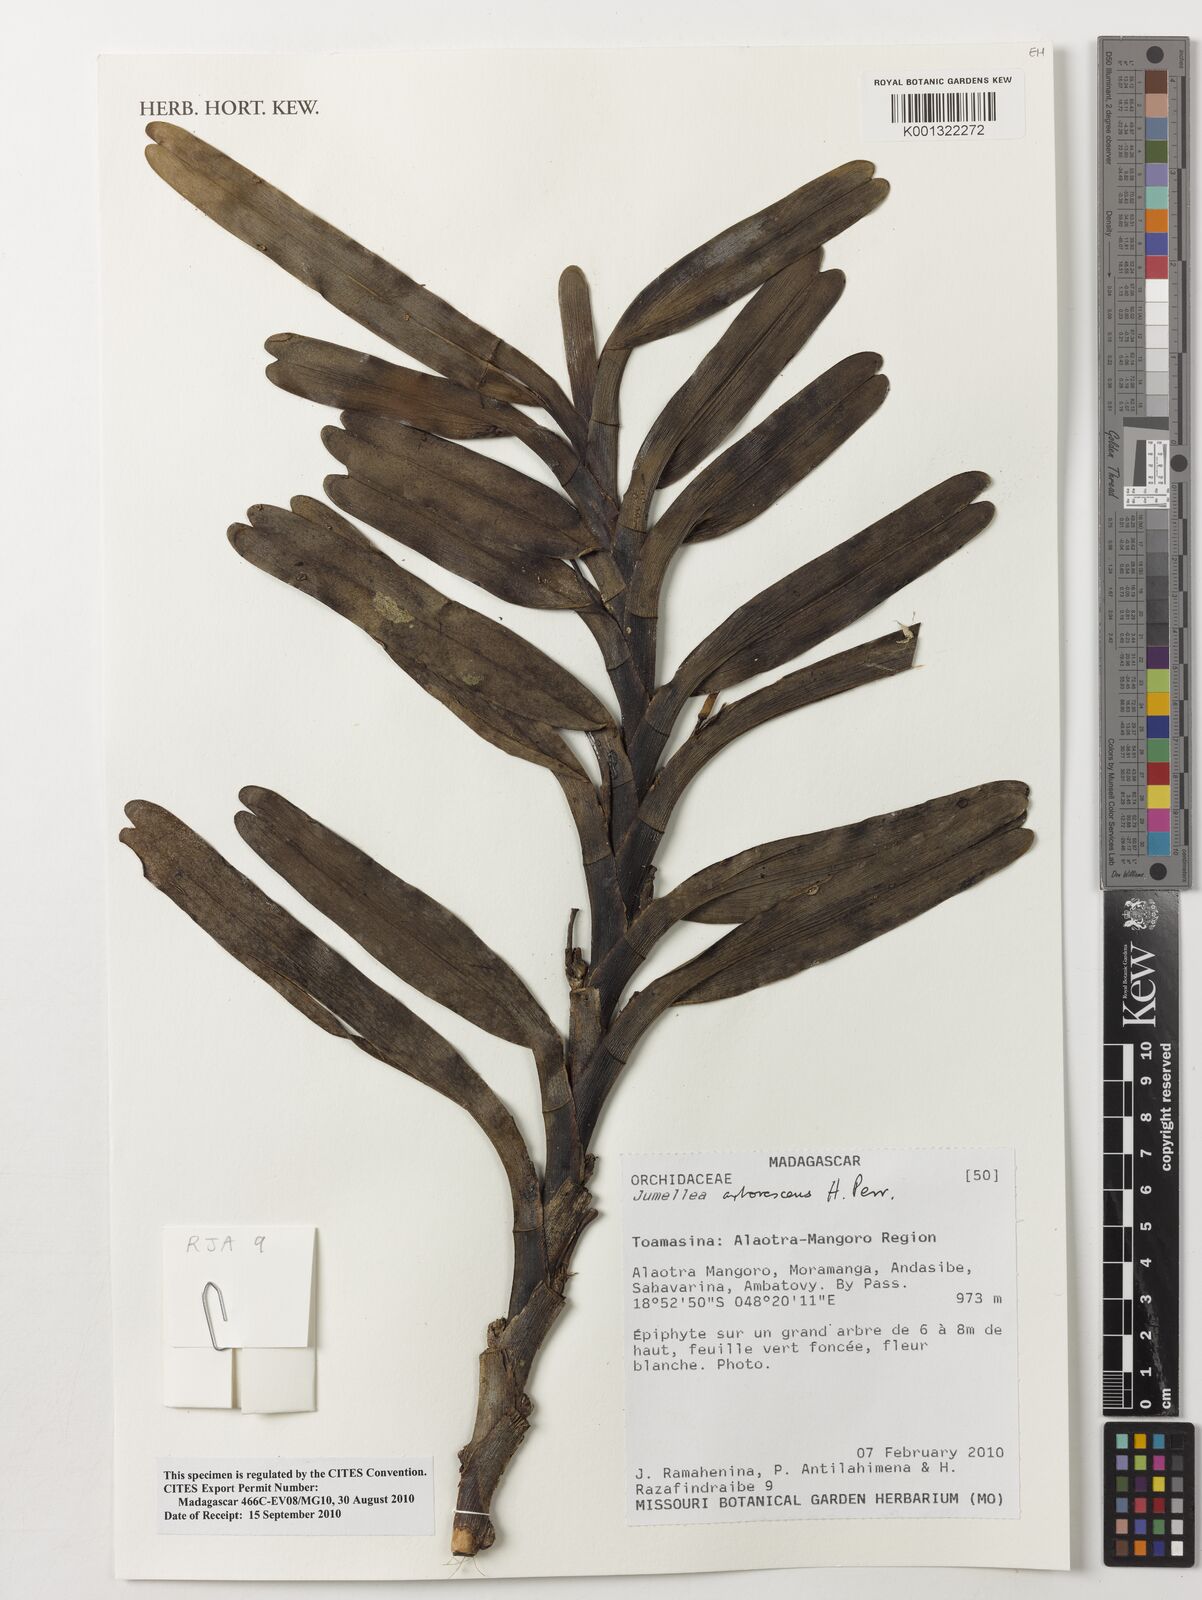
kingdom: Plantae
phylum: Tracheophyta
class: Liliopsida
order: Asparagales
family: Orchidaceae
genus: Jumellea
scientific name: Jumellea arborescens
